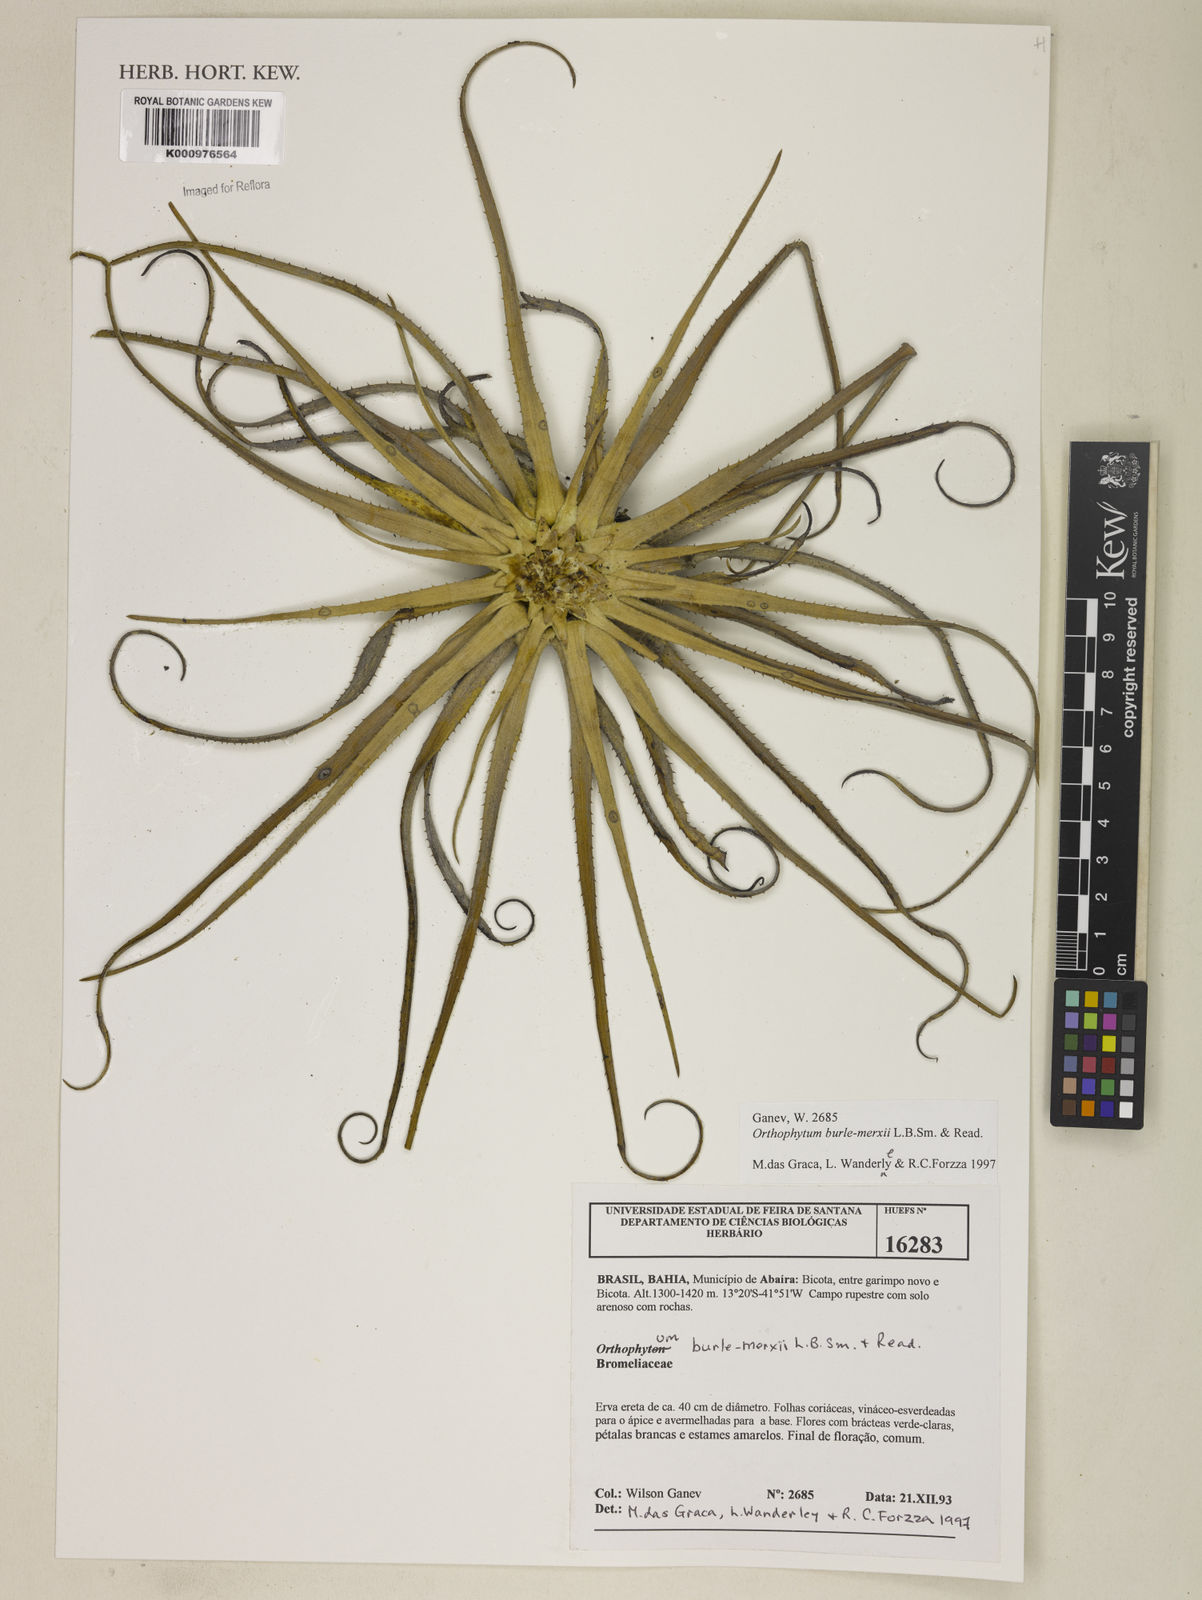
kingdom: Plantae
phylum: Tracheophyta
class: Liliopsida
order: Poales
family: Bromeliaceae
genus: Sincoraea
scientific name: Sincoraea burle-marxii
